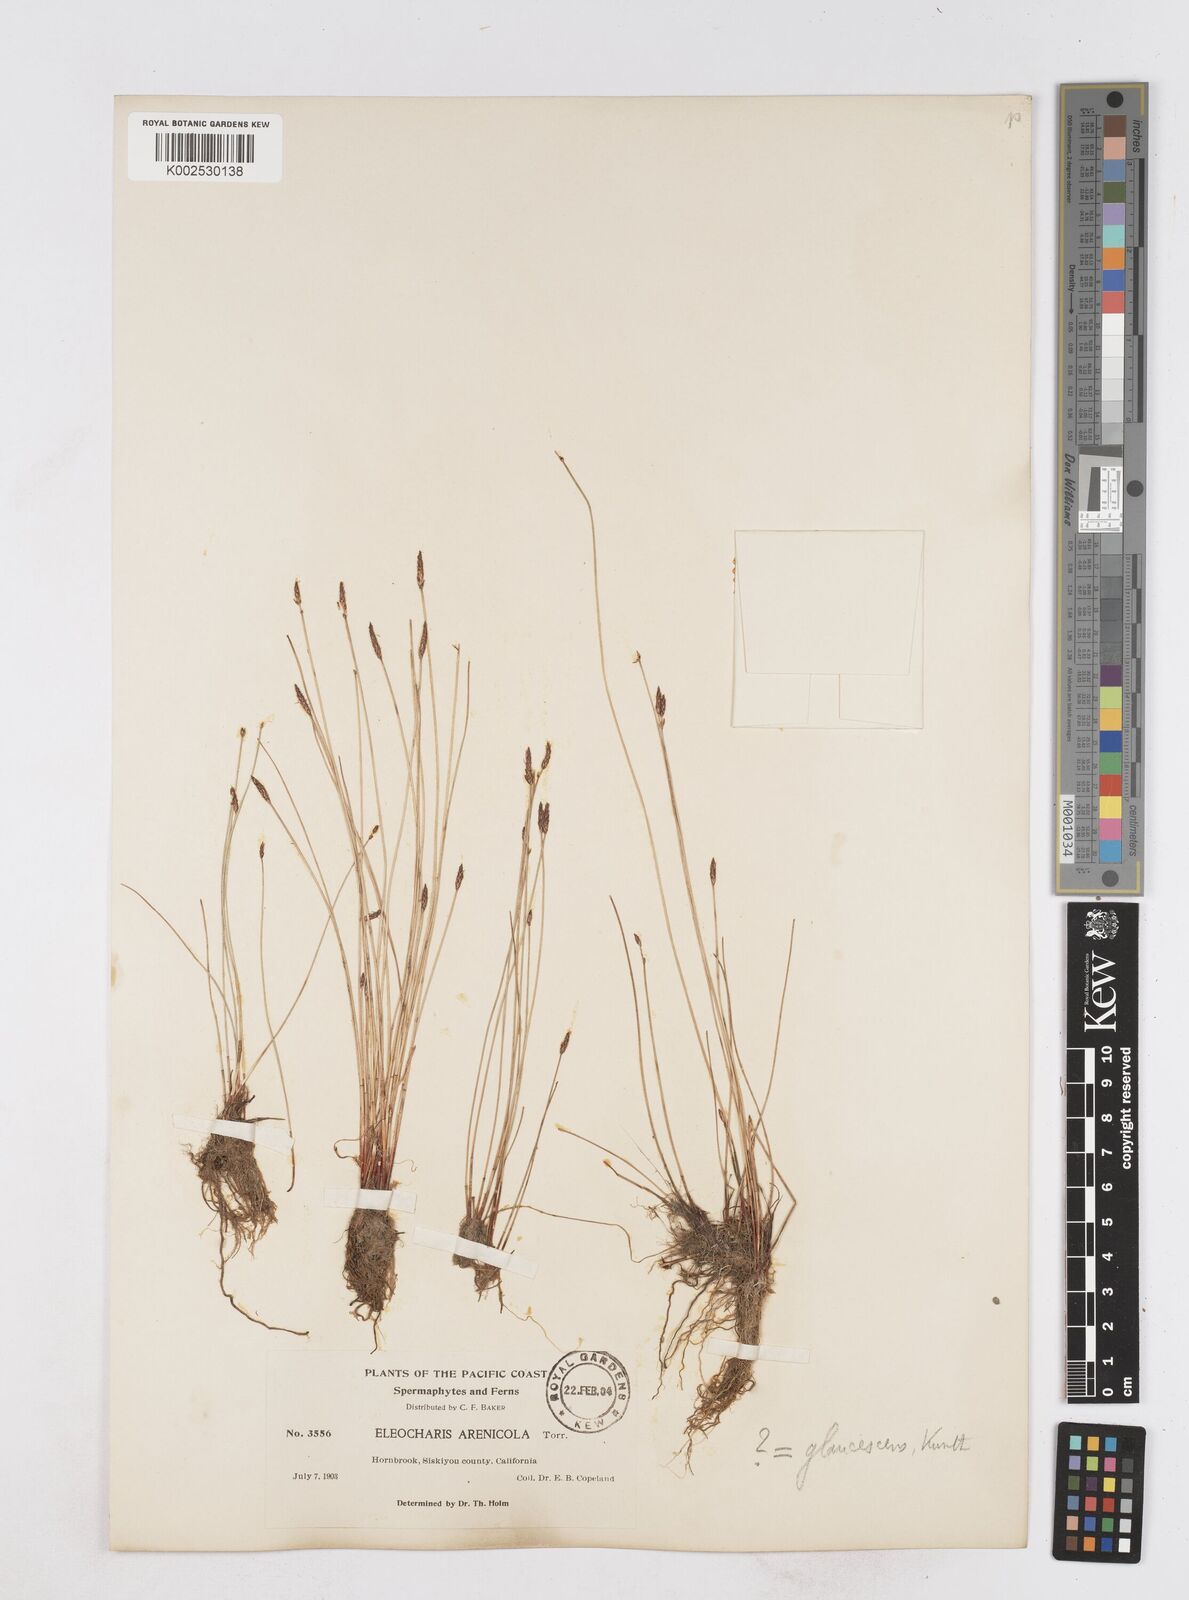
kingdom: Plantae
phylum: Tracheophyta
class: Liliopsida
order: Poales
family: Cyperaceae
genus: Eleocharis
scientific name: Eleocharis erythropoda
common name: Bald spikerush
